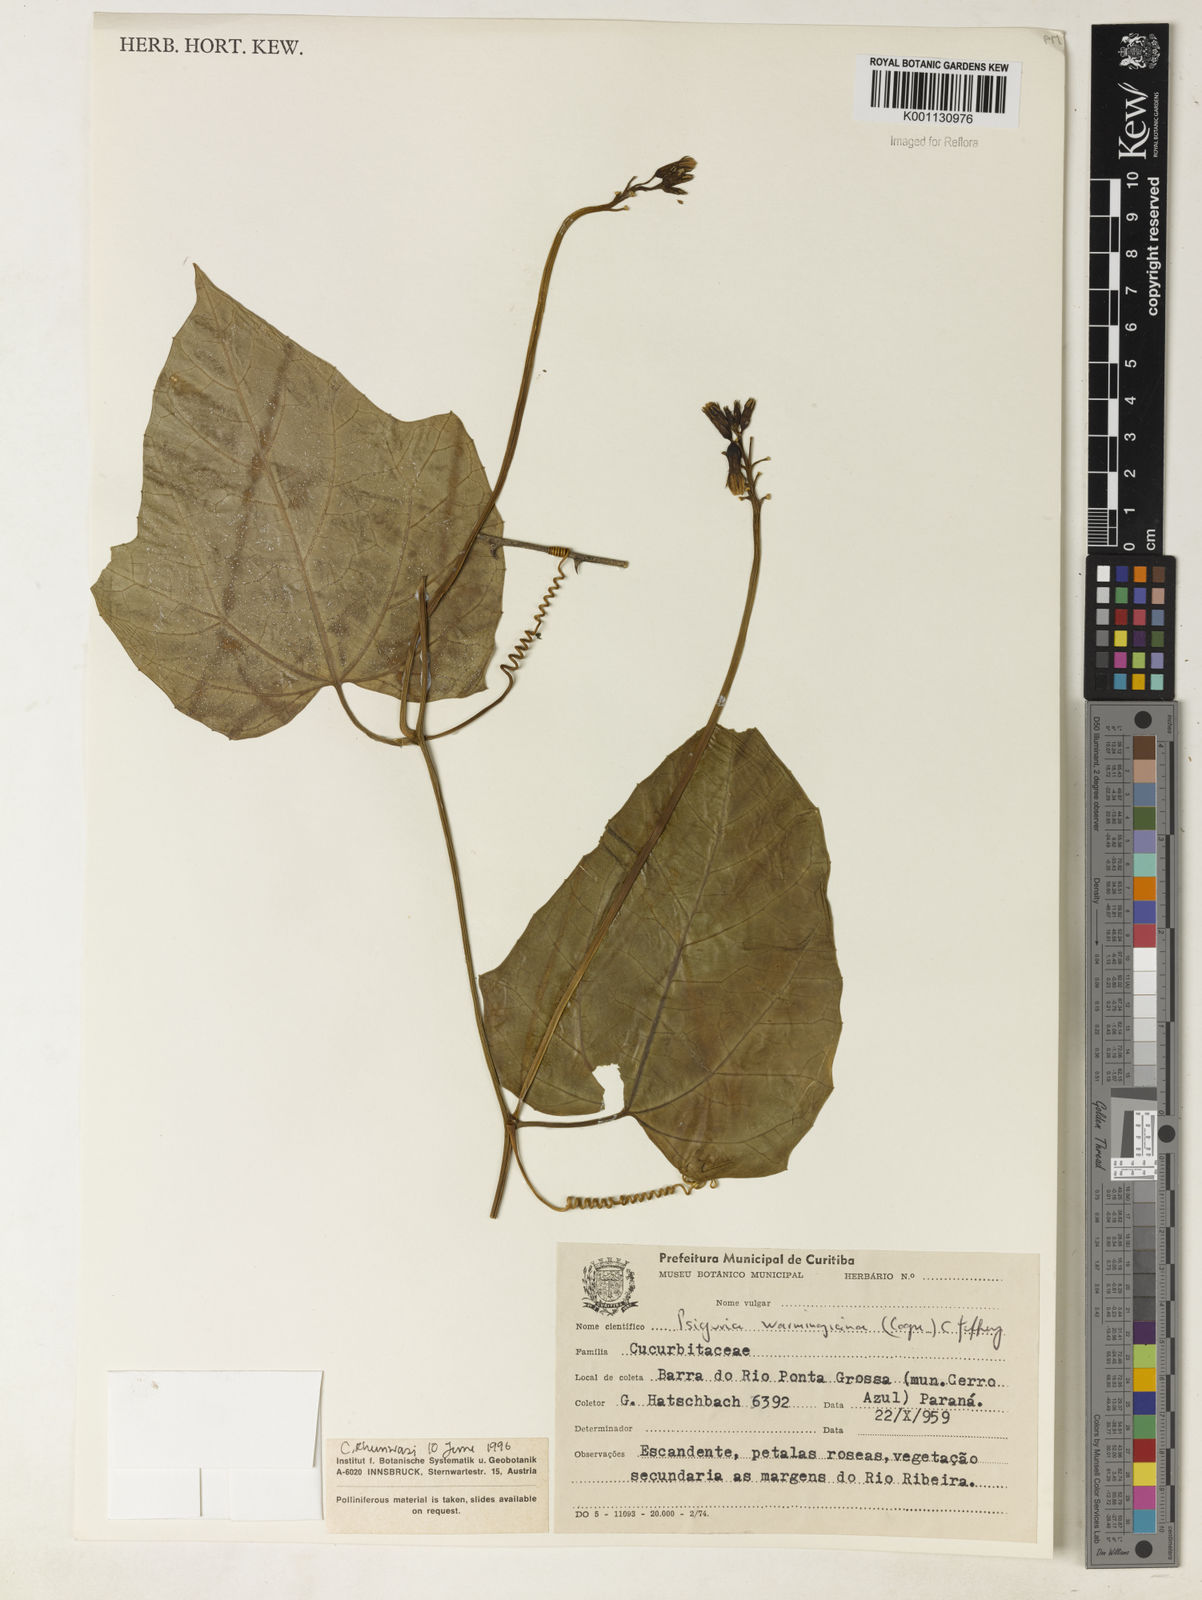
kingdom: Plantae
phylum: Tracheophyta
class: Magnoliopsida
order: Cucurbitales
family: Cucurbitaceae
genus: Psiguria
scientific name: Psiguria warmingiana
